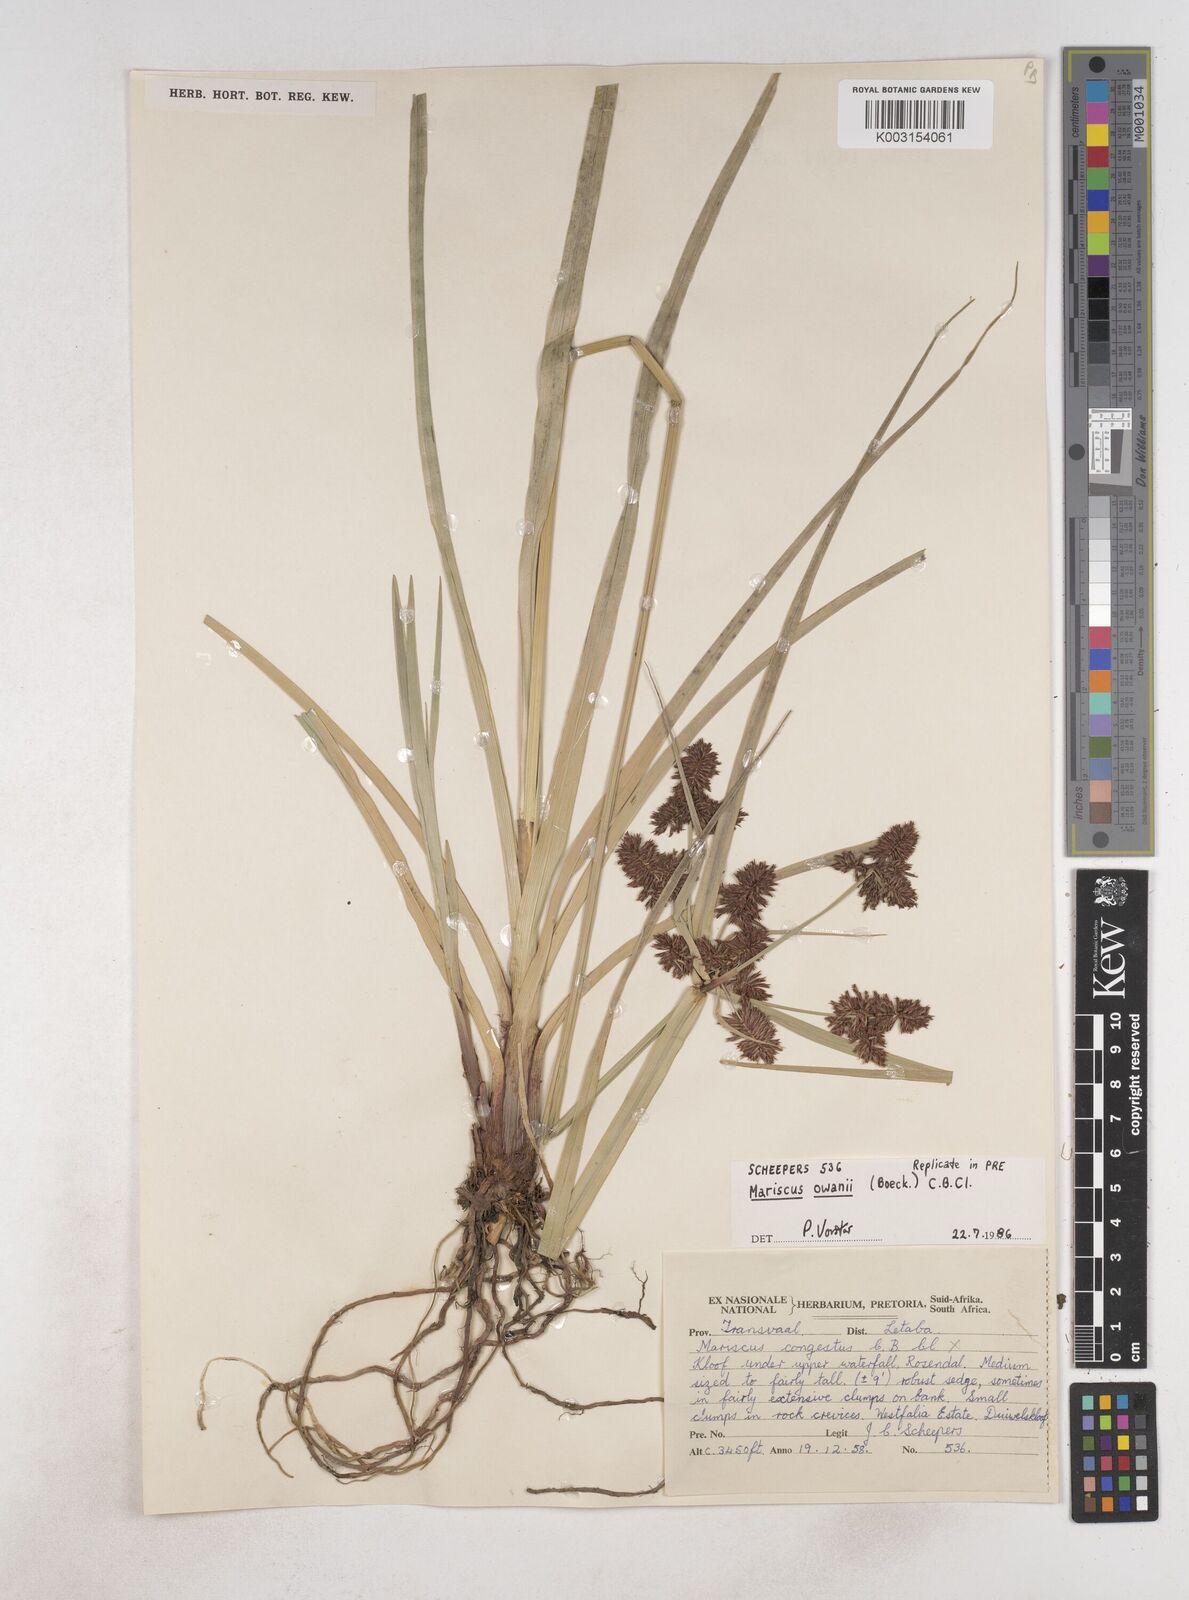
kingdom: Plantae
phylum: Tracheophyta
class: Liliopsida
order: Poales
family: Cyperaceae
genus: Cyperus
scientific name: Cyperus owanii
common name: Owan's flatsedge
